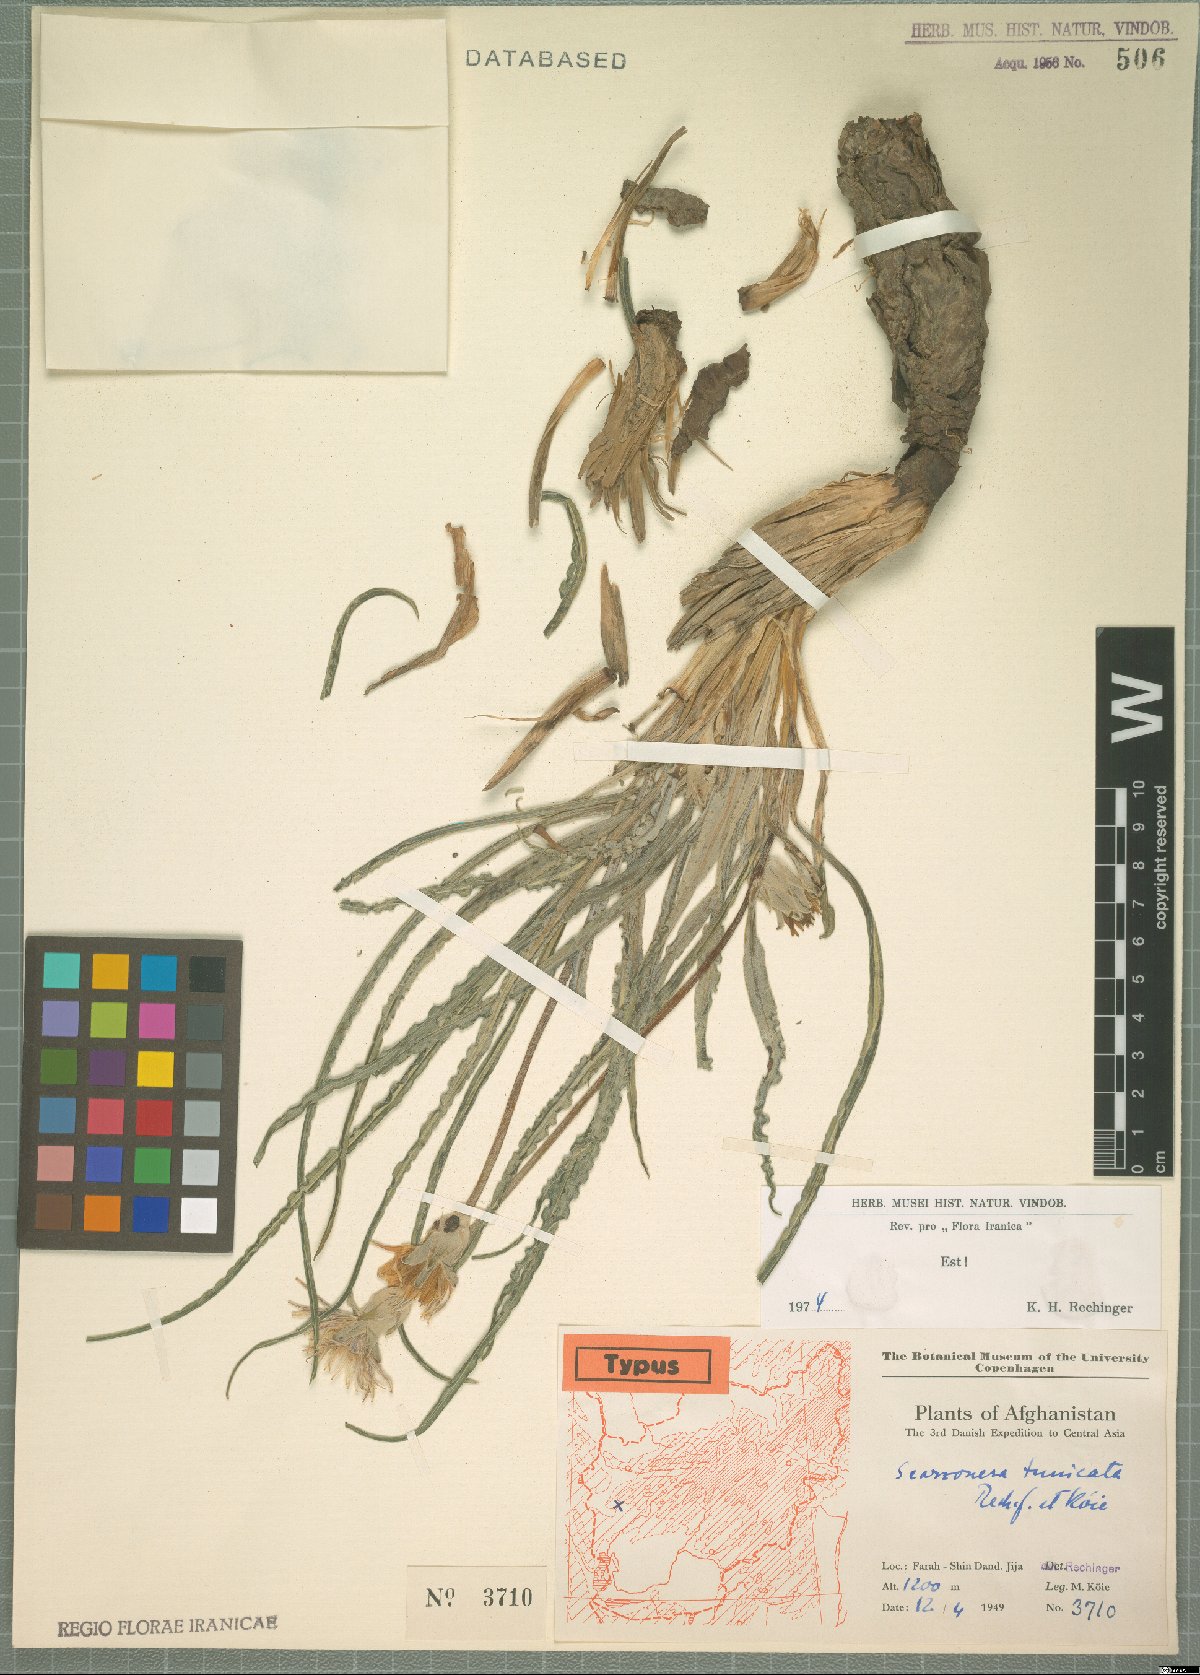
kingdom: Plantae
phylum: Tracheophyta
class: Magnoliopsida
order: Asterales
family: Asteraceae
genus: Scorzonera
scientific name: Scorzonera tunicata
